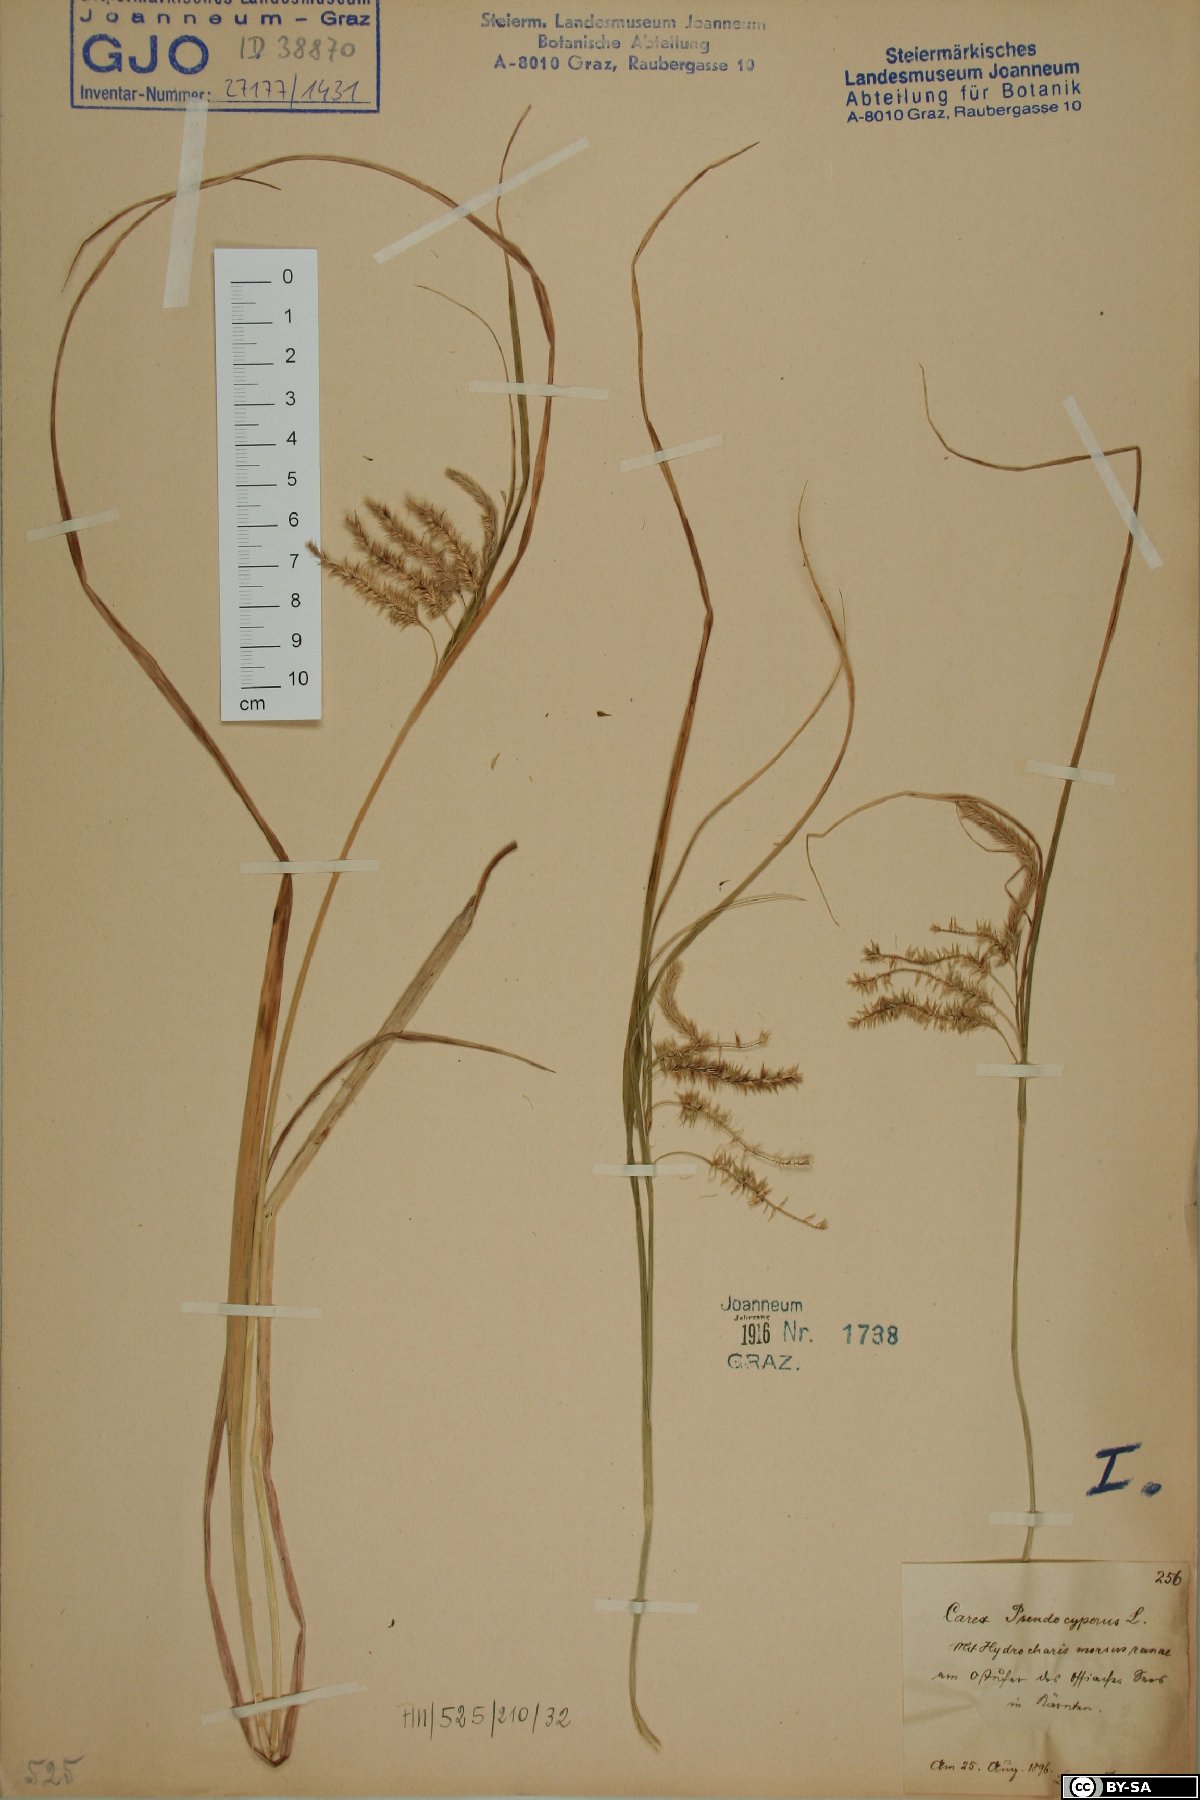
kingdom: Plantae
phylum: Tracheophyta
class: Liliopsida
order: Poales
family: Cyperaceae
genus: Carex
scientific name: Carex pseudocyperus
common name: Cyperus sedge
